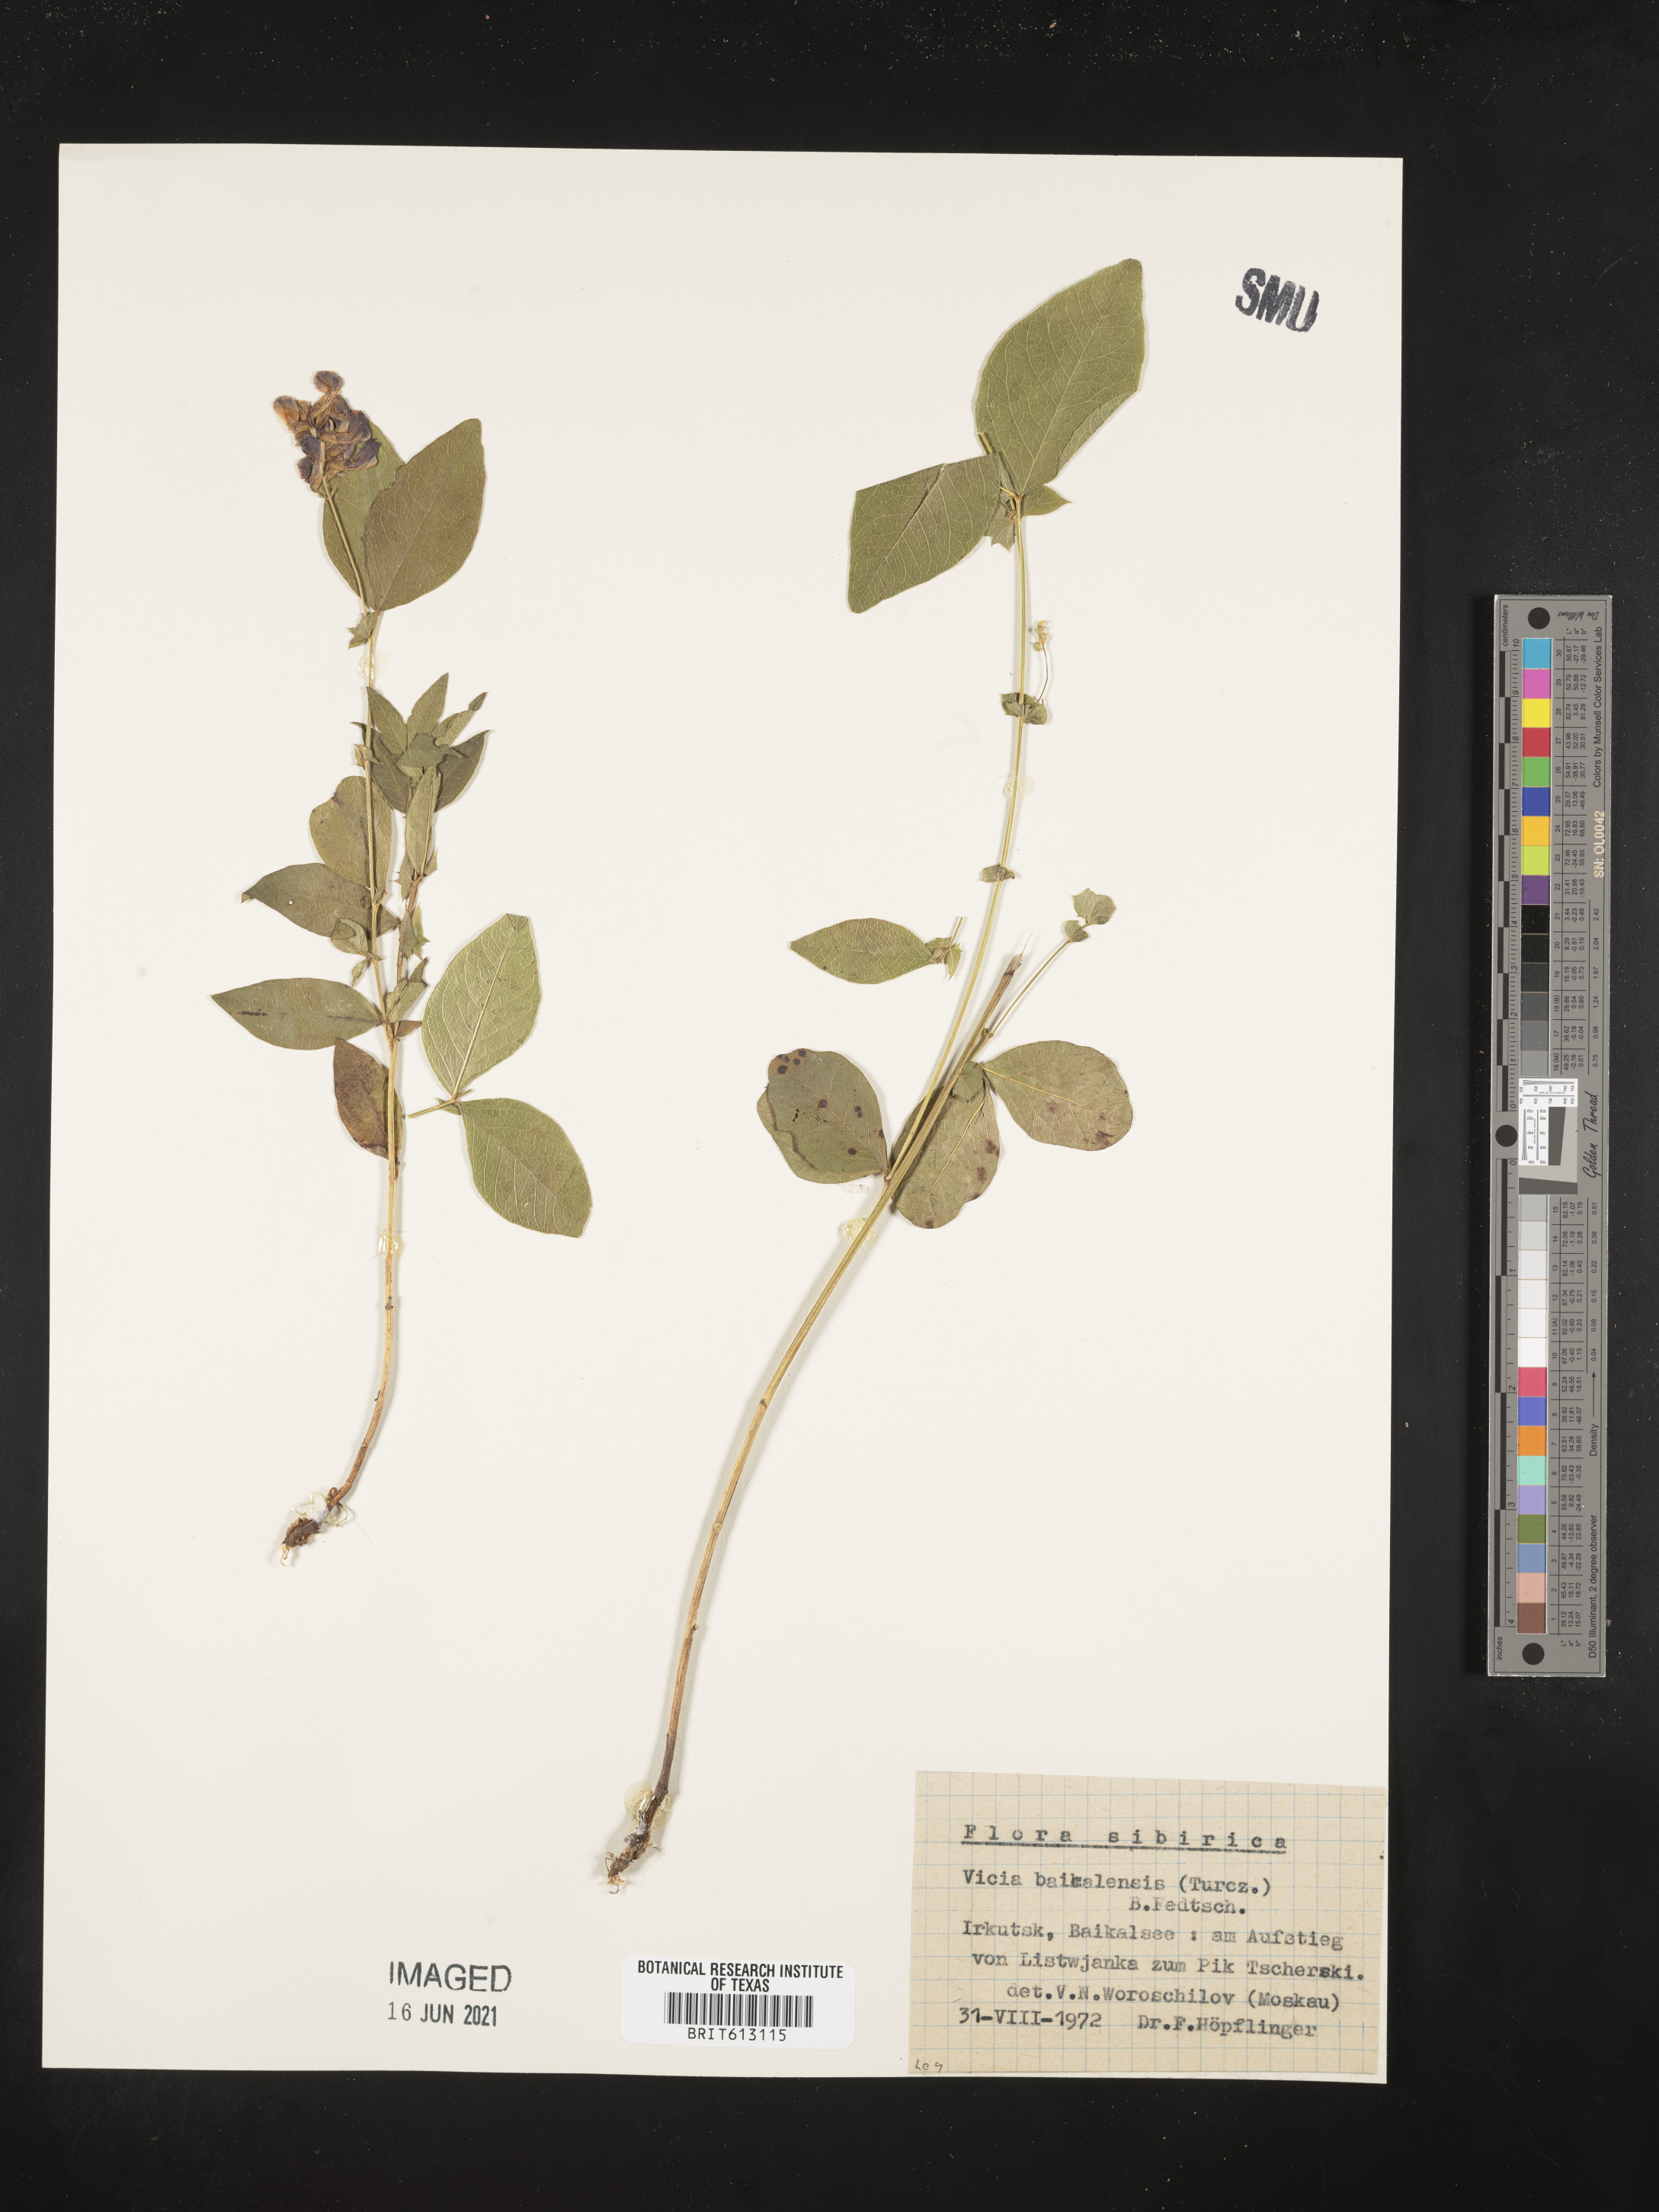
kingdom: Plantae
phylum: Tracheophyta
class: Magnoliopsida
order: Fabales
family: Fabaceae
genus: Vicia
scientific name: Vicia ramuliflora
